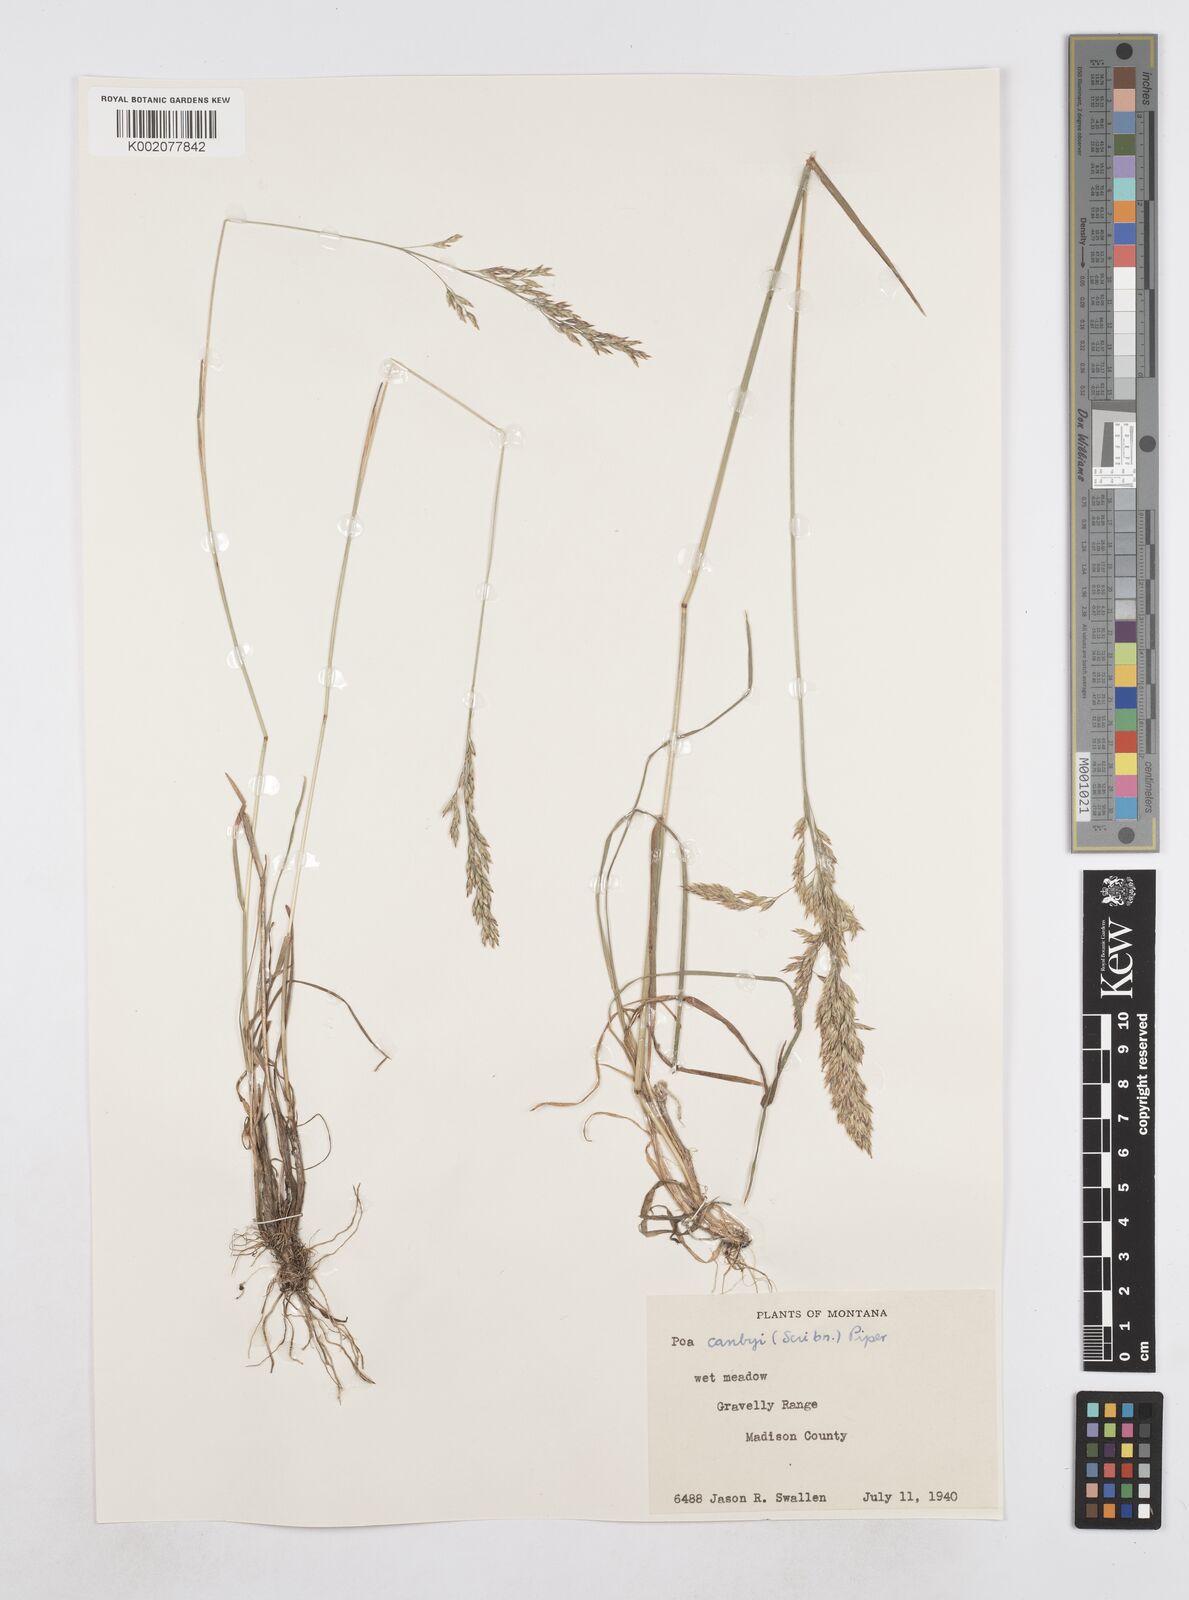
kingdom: Plantae
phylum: Tracheophyta
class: Liliopsida
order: Poales
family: Poaceae
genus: Poa
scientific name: Poa secunda
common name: Sandberg bluegrass
